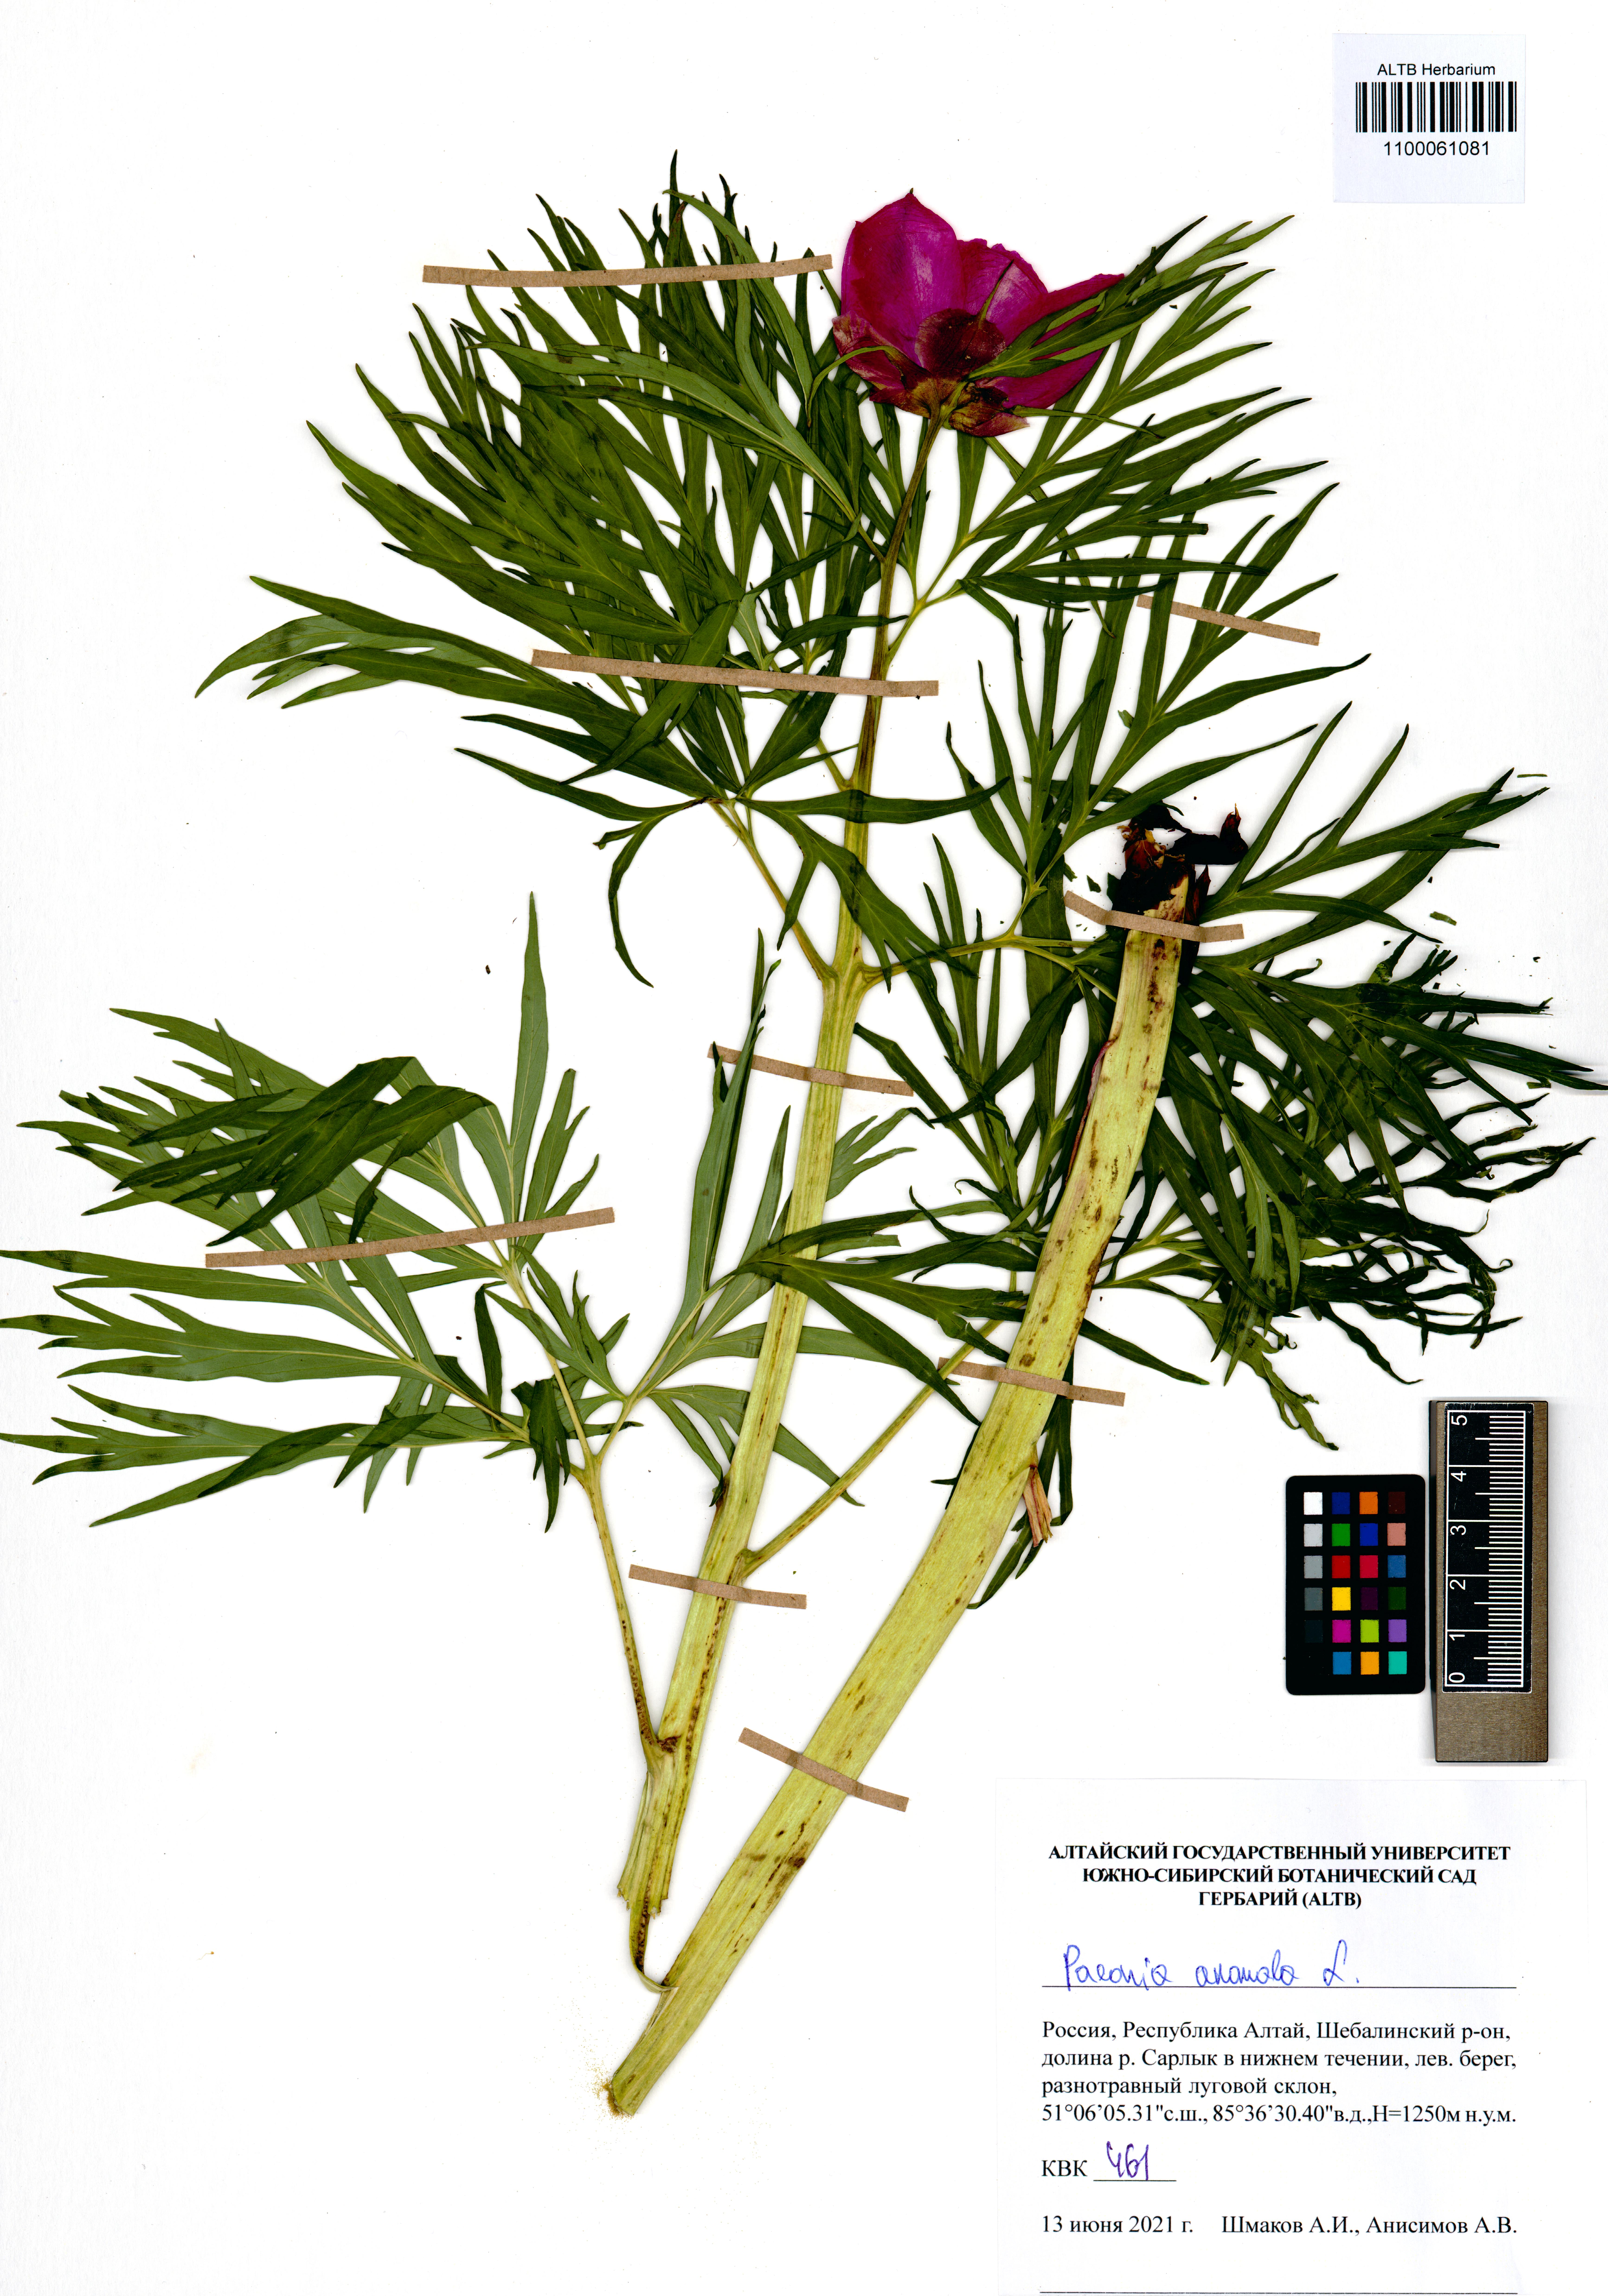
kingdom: Plantae
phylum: Tracheophyta
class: Magnoliopsida
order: Saxifragales
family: Paeoniaceae
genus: Paeonia
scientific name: Paeonia anomala
